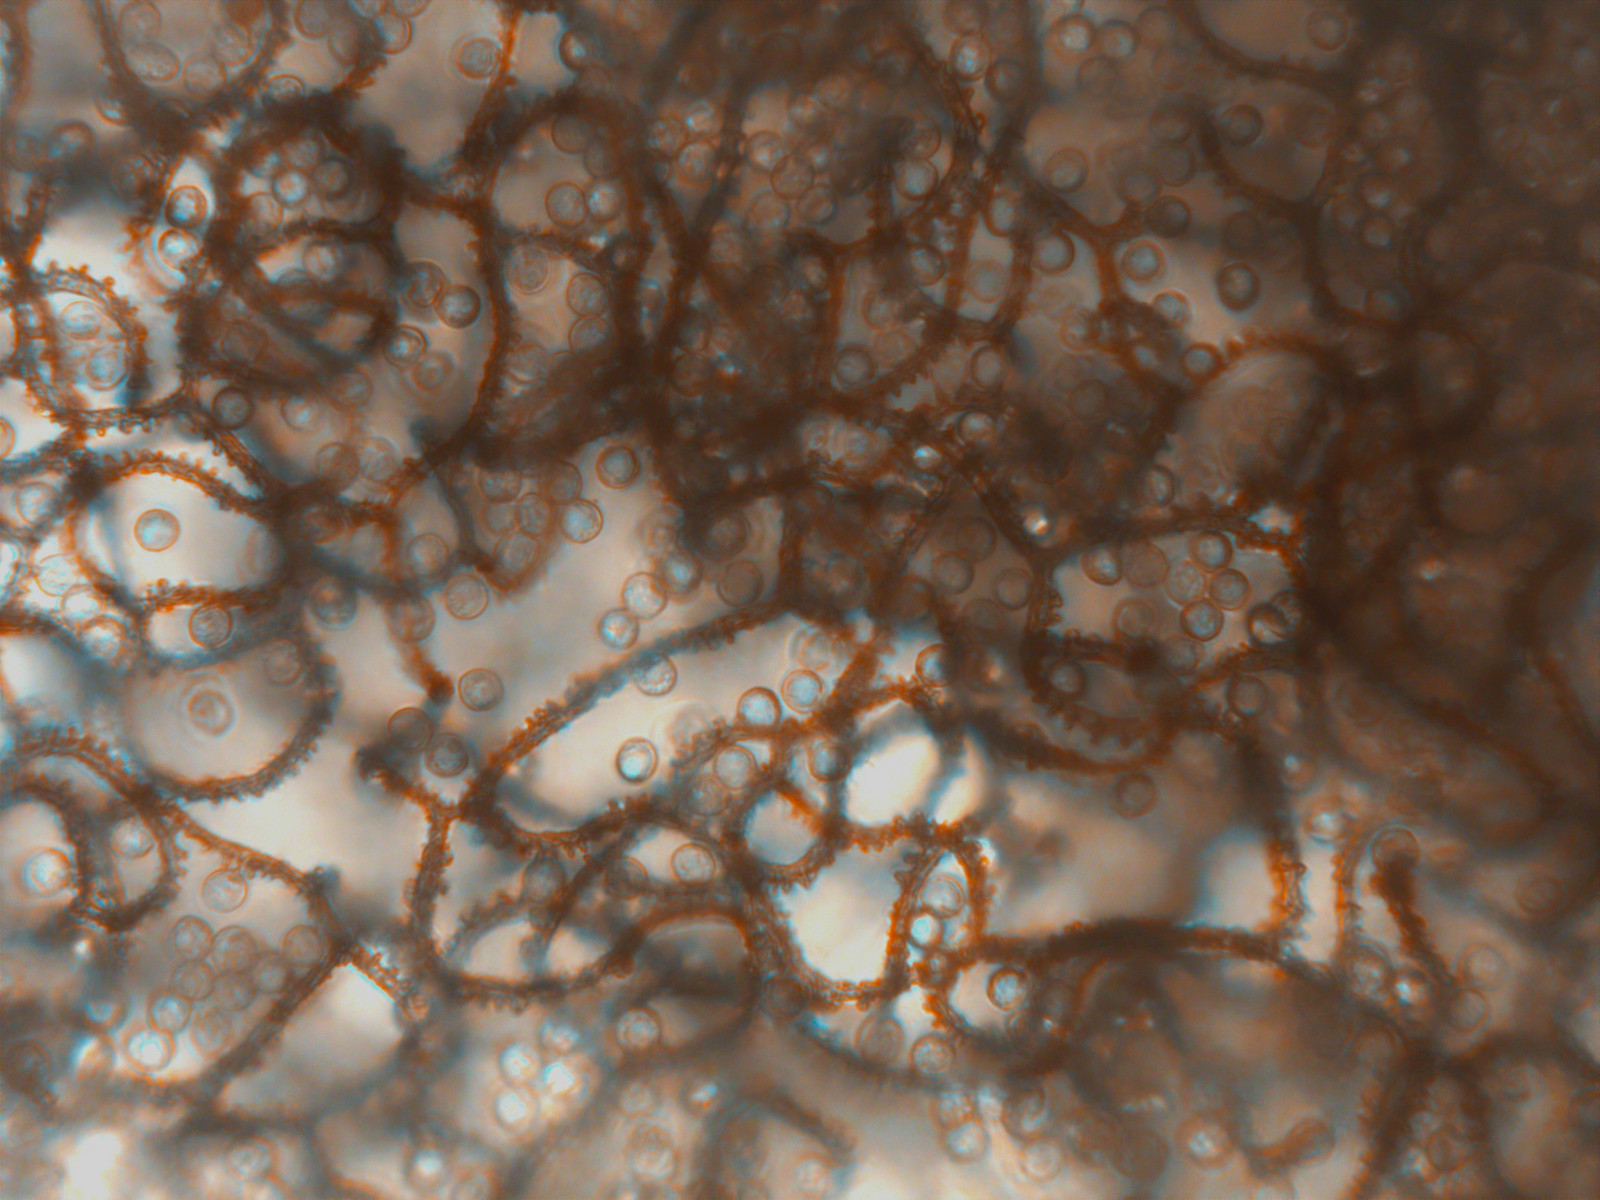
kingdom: Protozoa
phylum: Mycetozoa
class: Myxomycetes
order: Trichiales
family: Arcyriaceae
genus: Arcyria
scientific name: Arcyria denudata
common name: karminrød skålsvøb
